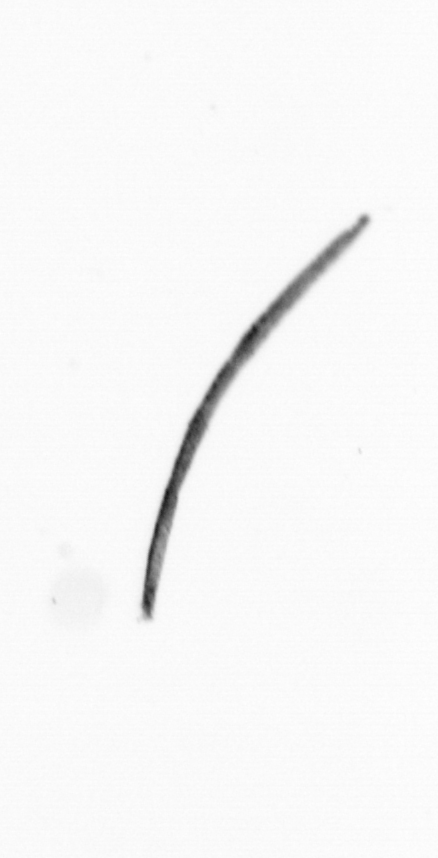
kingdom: Chromista
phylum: Ochrophyta
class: Bacillariophyceae
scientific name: Bacillariophyceae
